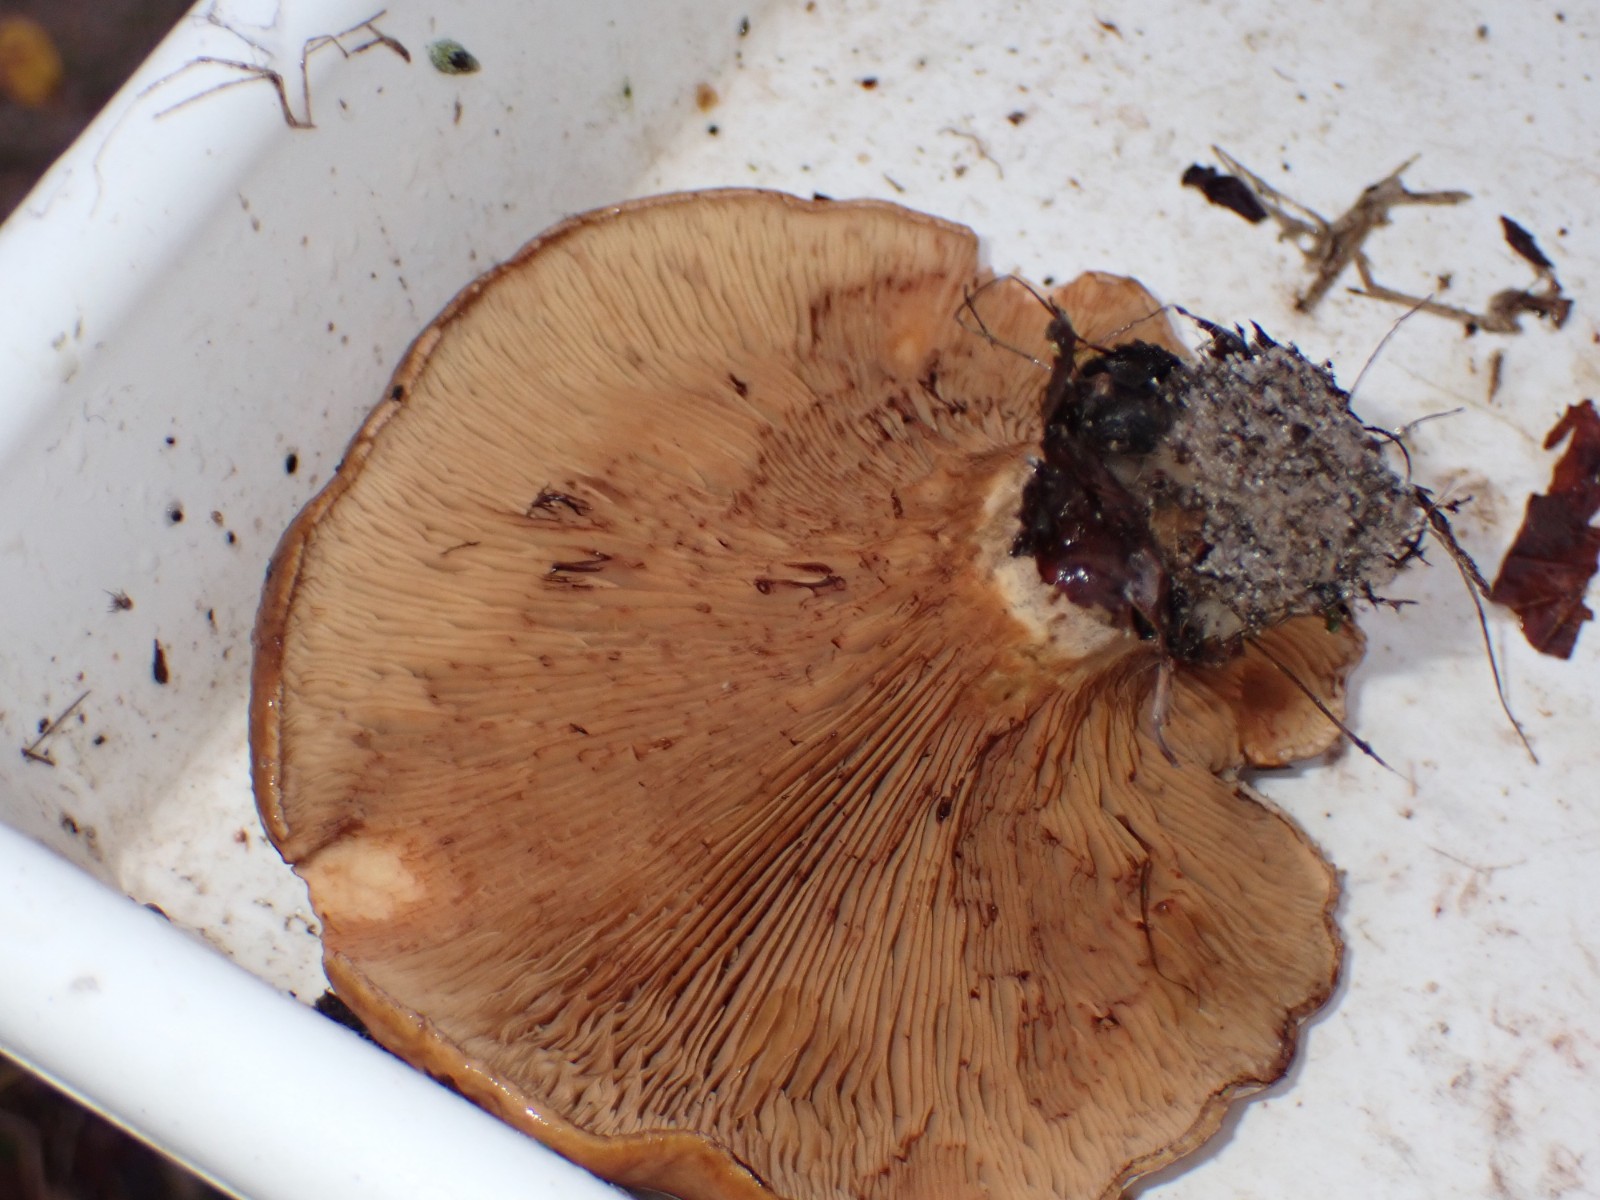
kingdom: Fungi
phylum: Basidiomycota
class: Agaricomycetes
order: Boletales
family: Paxillaceae
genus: Paxillus
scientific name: Paxillus
